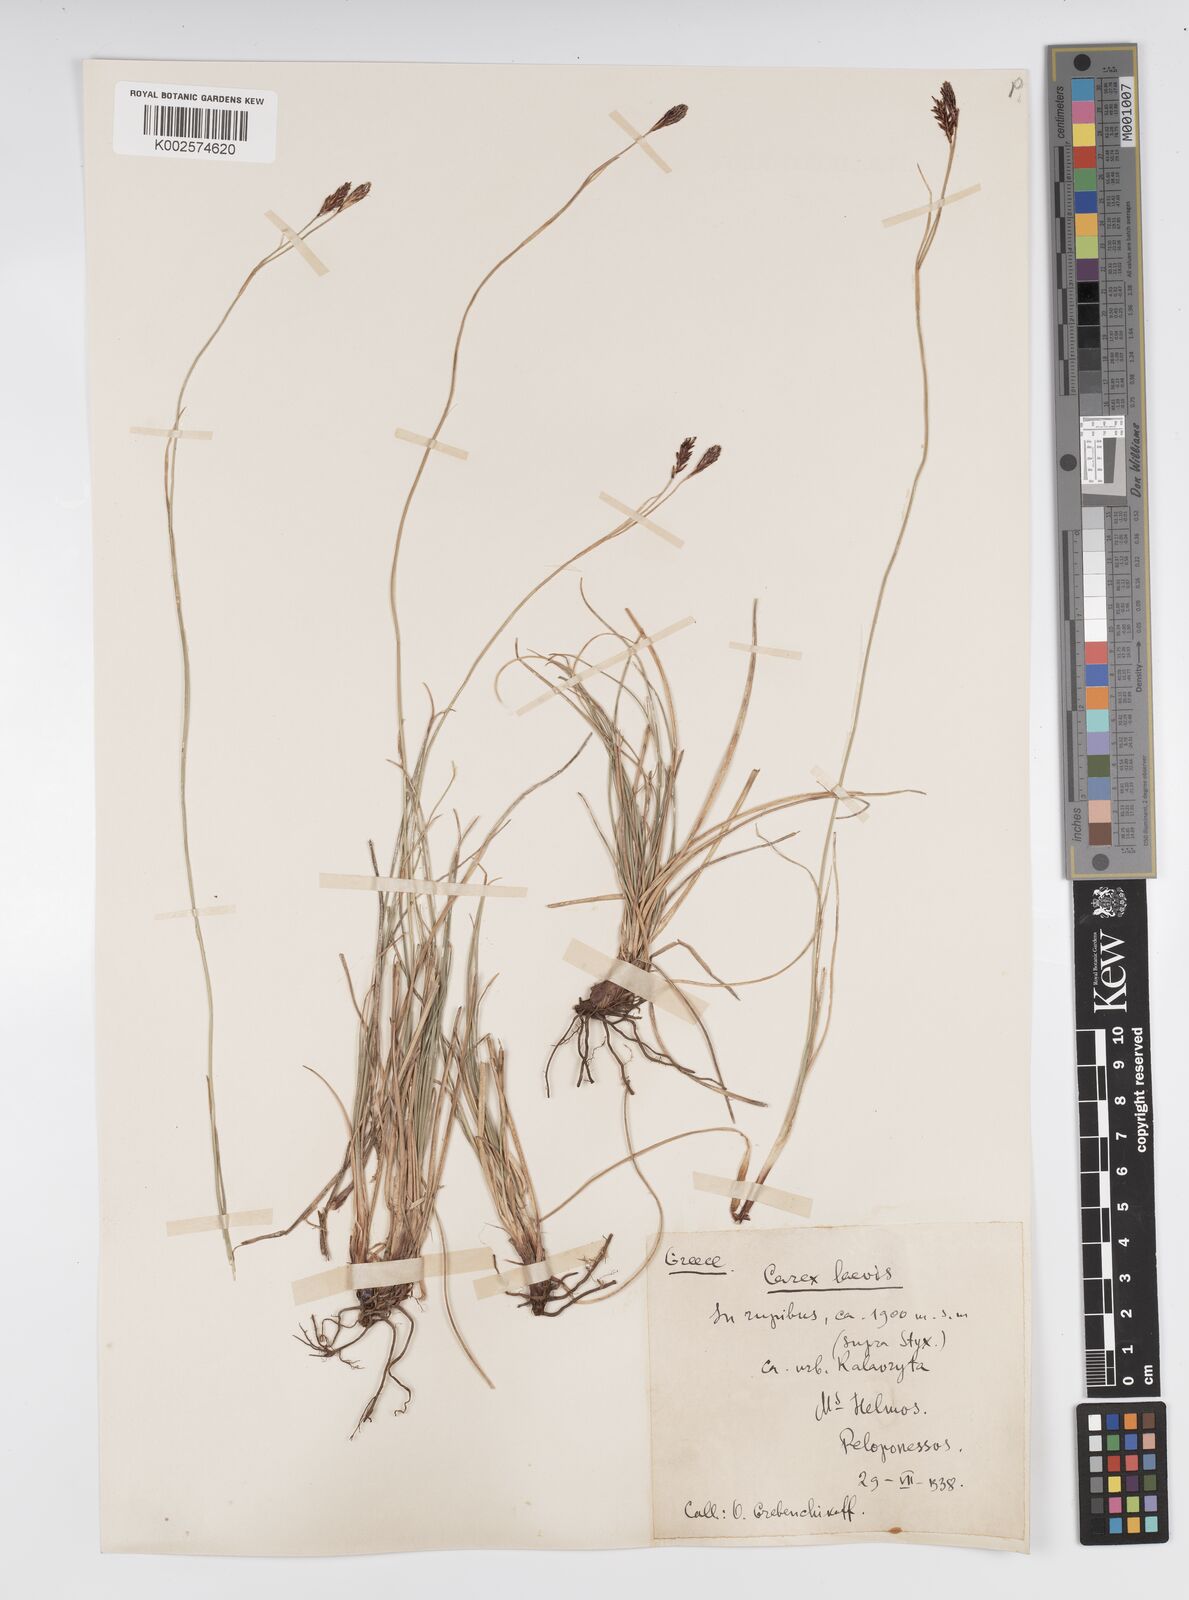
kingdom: Plantae
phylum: Tracheophyta
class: Liliopsida
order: Poales
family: Cyperaceae
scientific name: Cyperaceae
